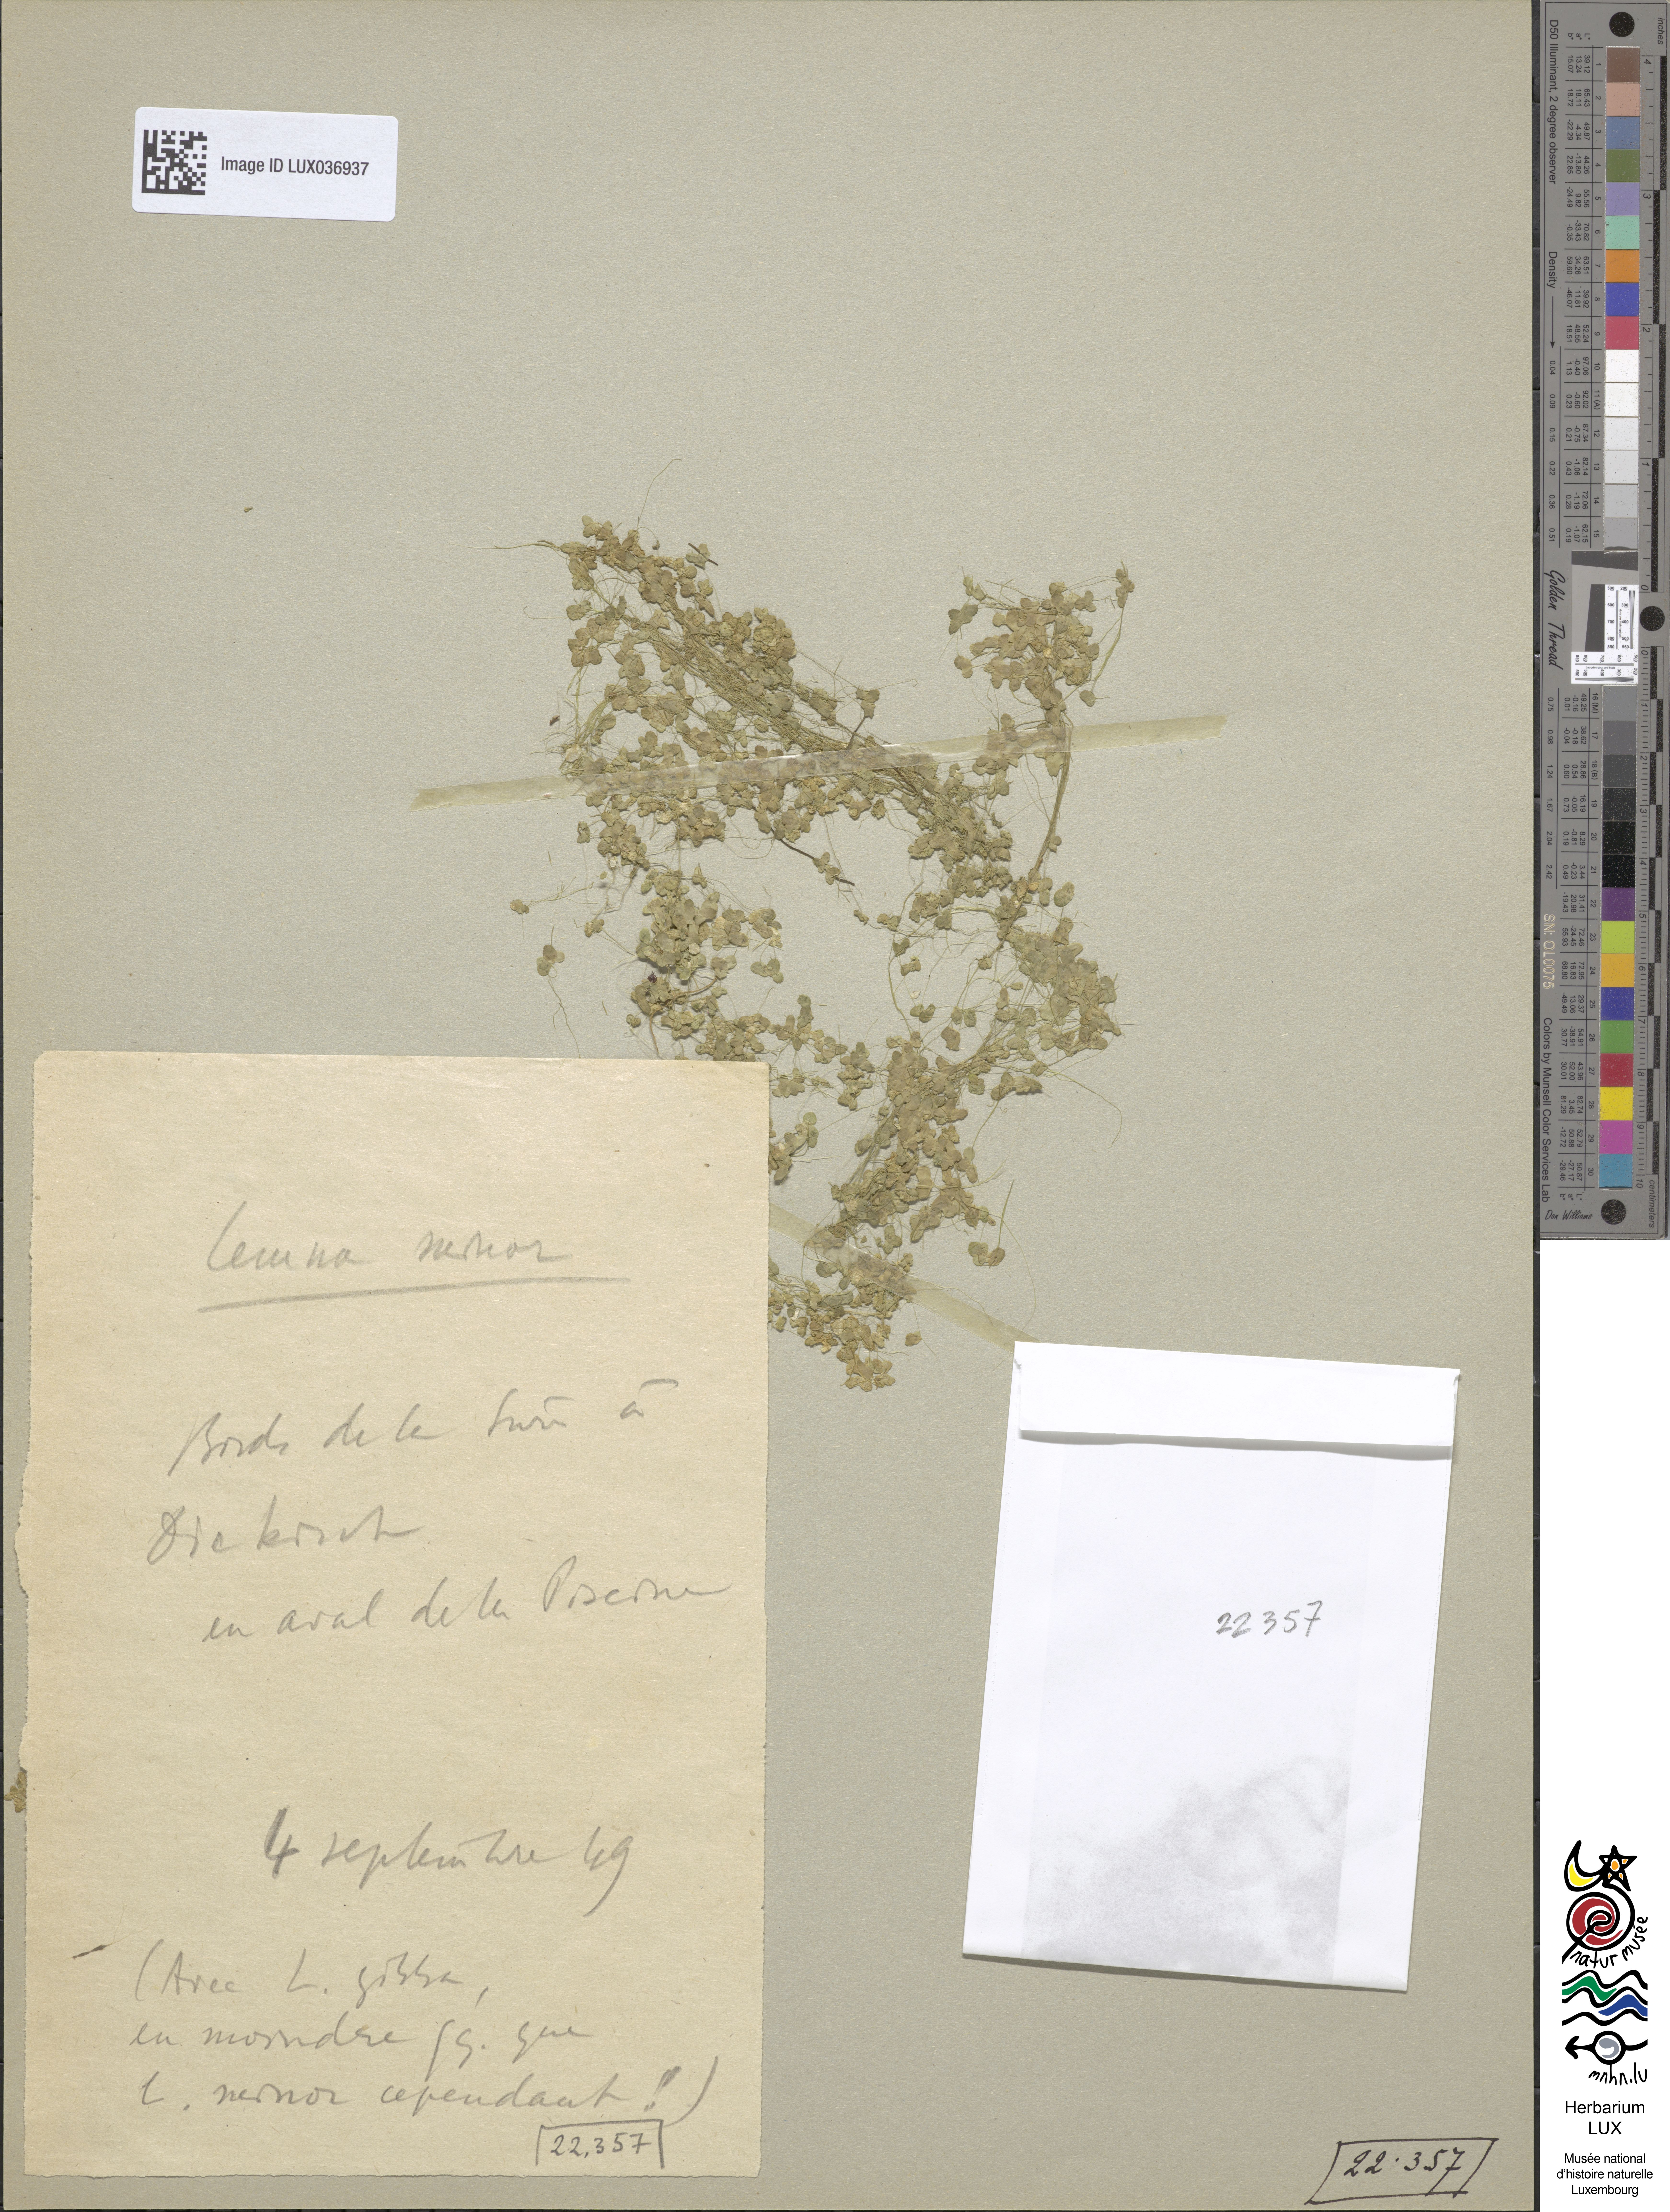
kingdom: Plantae
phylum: Tracheophyta
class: Liliopsida
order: Alismatales
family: Araceae
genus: Lemna
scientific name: Lemna minor
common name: Common duckweed
